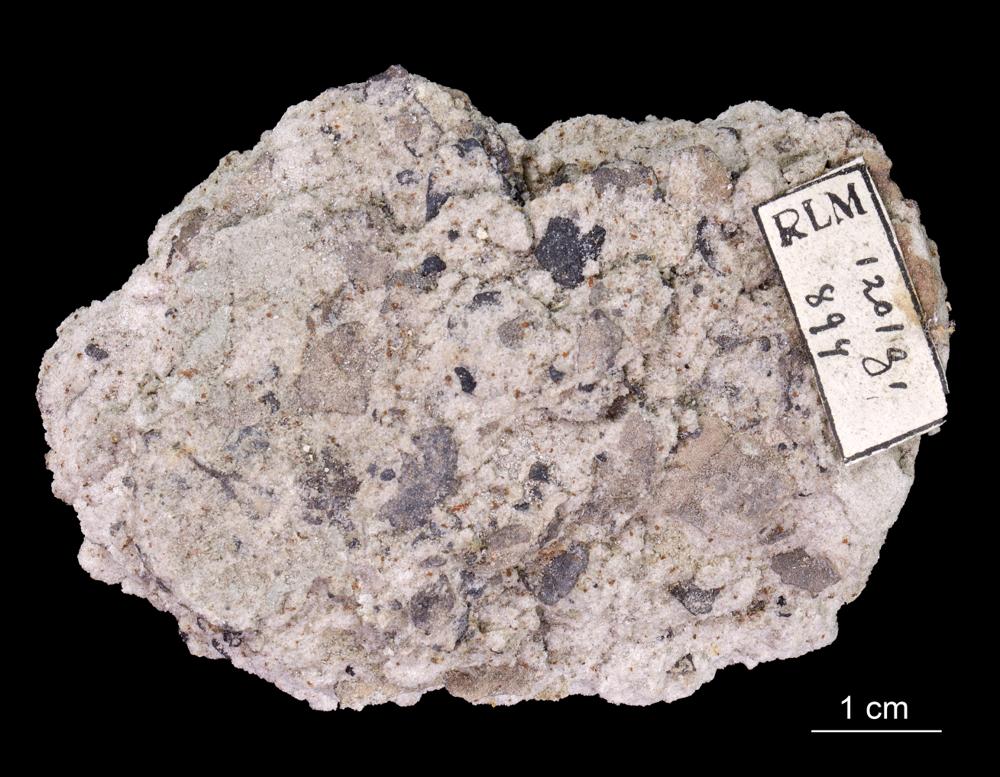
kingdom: Animalia
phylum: Brachiopoda
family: Paterinidae
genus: Mickwitzia
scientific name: Mickwitzia
